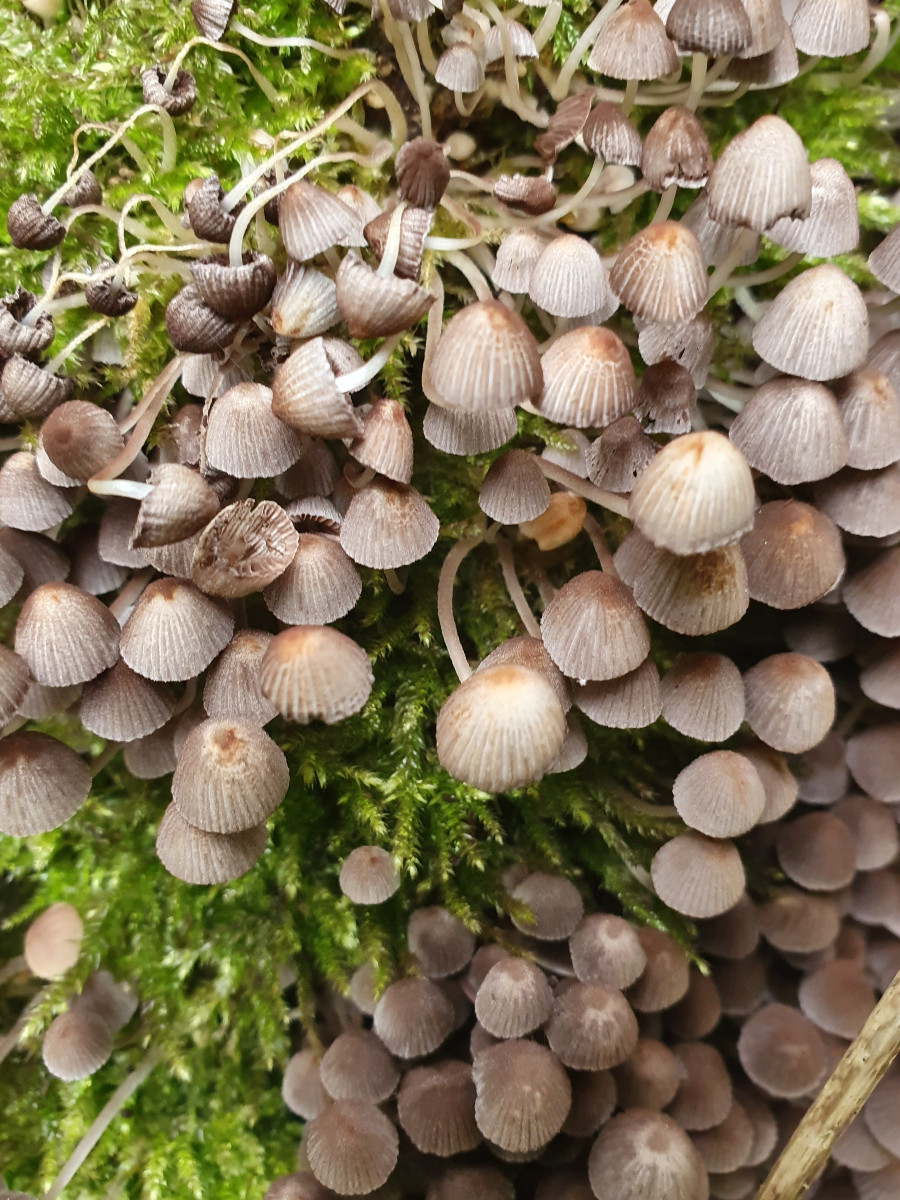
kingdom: Fungi
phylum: Basidiomycota
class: Agaricomycetes
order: Agaricales
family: Psathyrellaceae
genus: Coprinellus
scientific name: Coprinellus disseminatus
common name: bredsået blækhat
